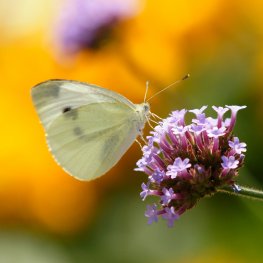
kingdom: Animalia
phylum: Arthropoda
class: Insecta
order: Lepidoptera
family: Pieridae
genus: Pieris
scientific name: Pieris rapae
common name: Cabbage White
